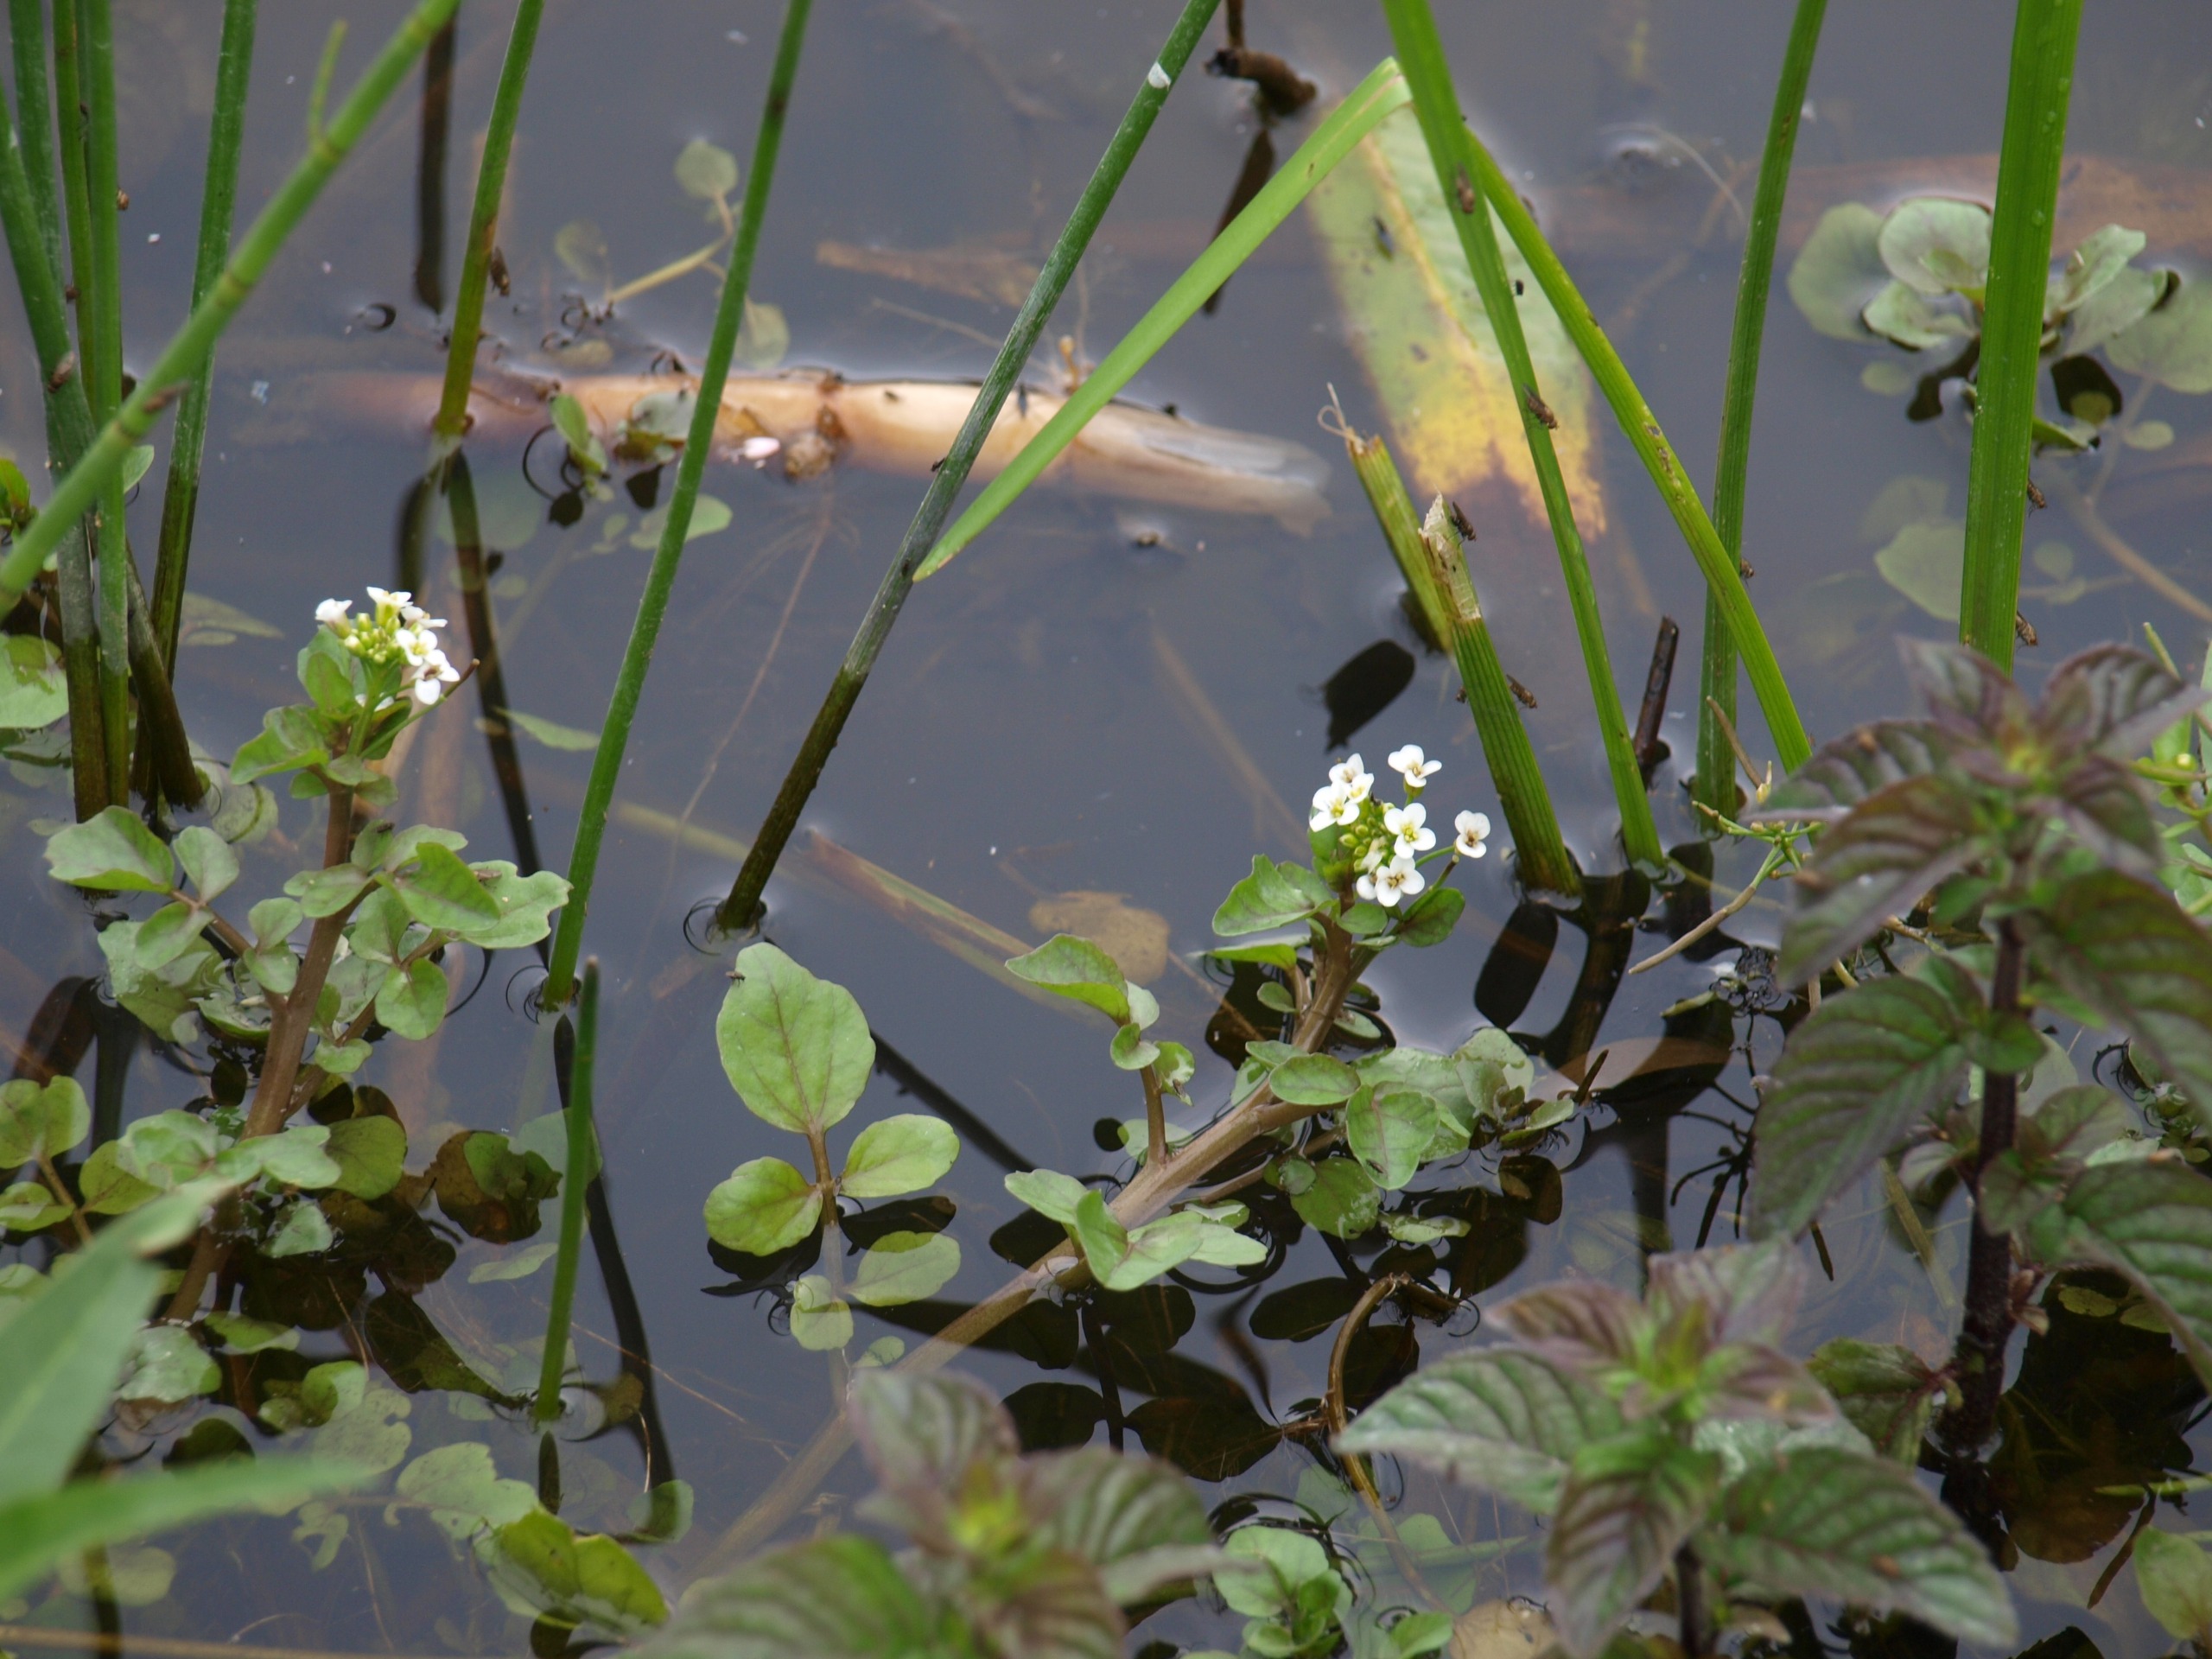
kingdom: Plantae
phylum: Tracheophyta
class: Magnoliopsida
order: Brassicales
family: Brassicaceae
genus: Nasturtium
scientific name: Nasturtium
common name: Brøndkarseslægten
